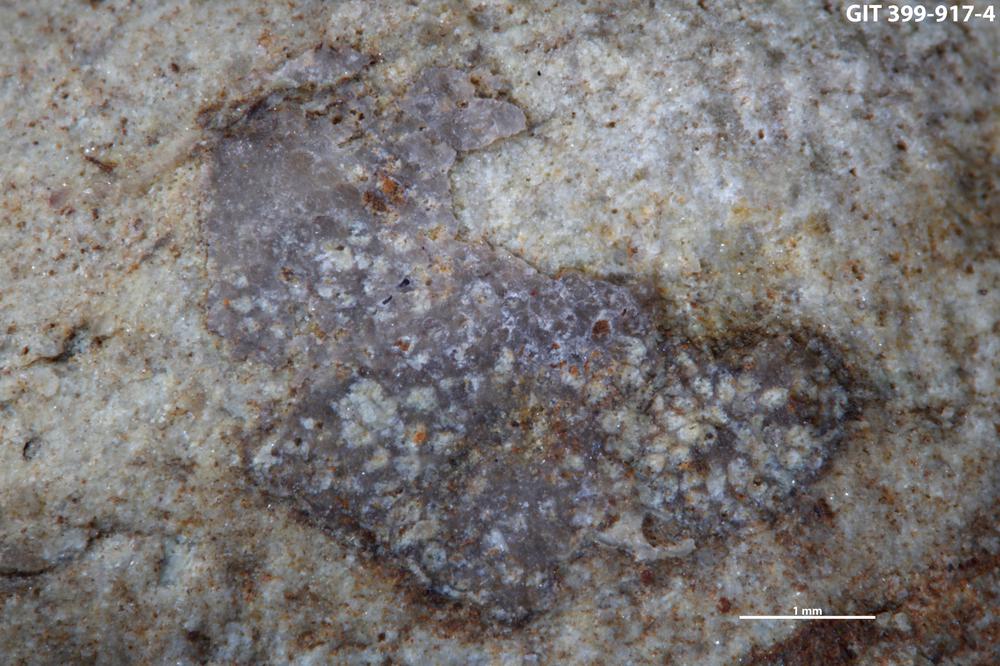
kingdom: Animalia
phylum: Bryozoa
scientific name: Bryozoa
